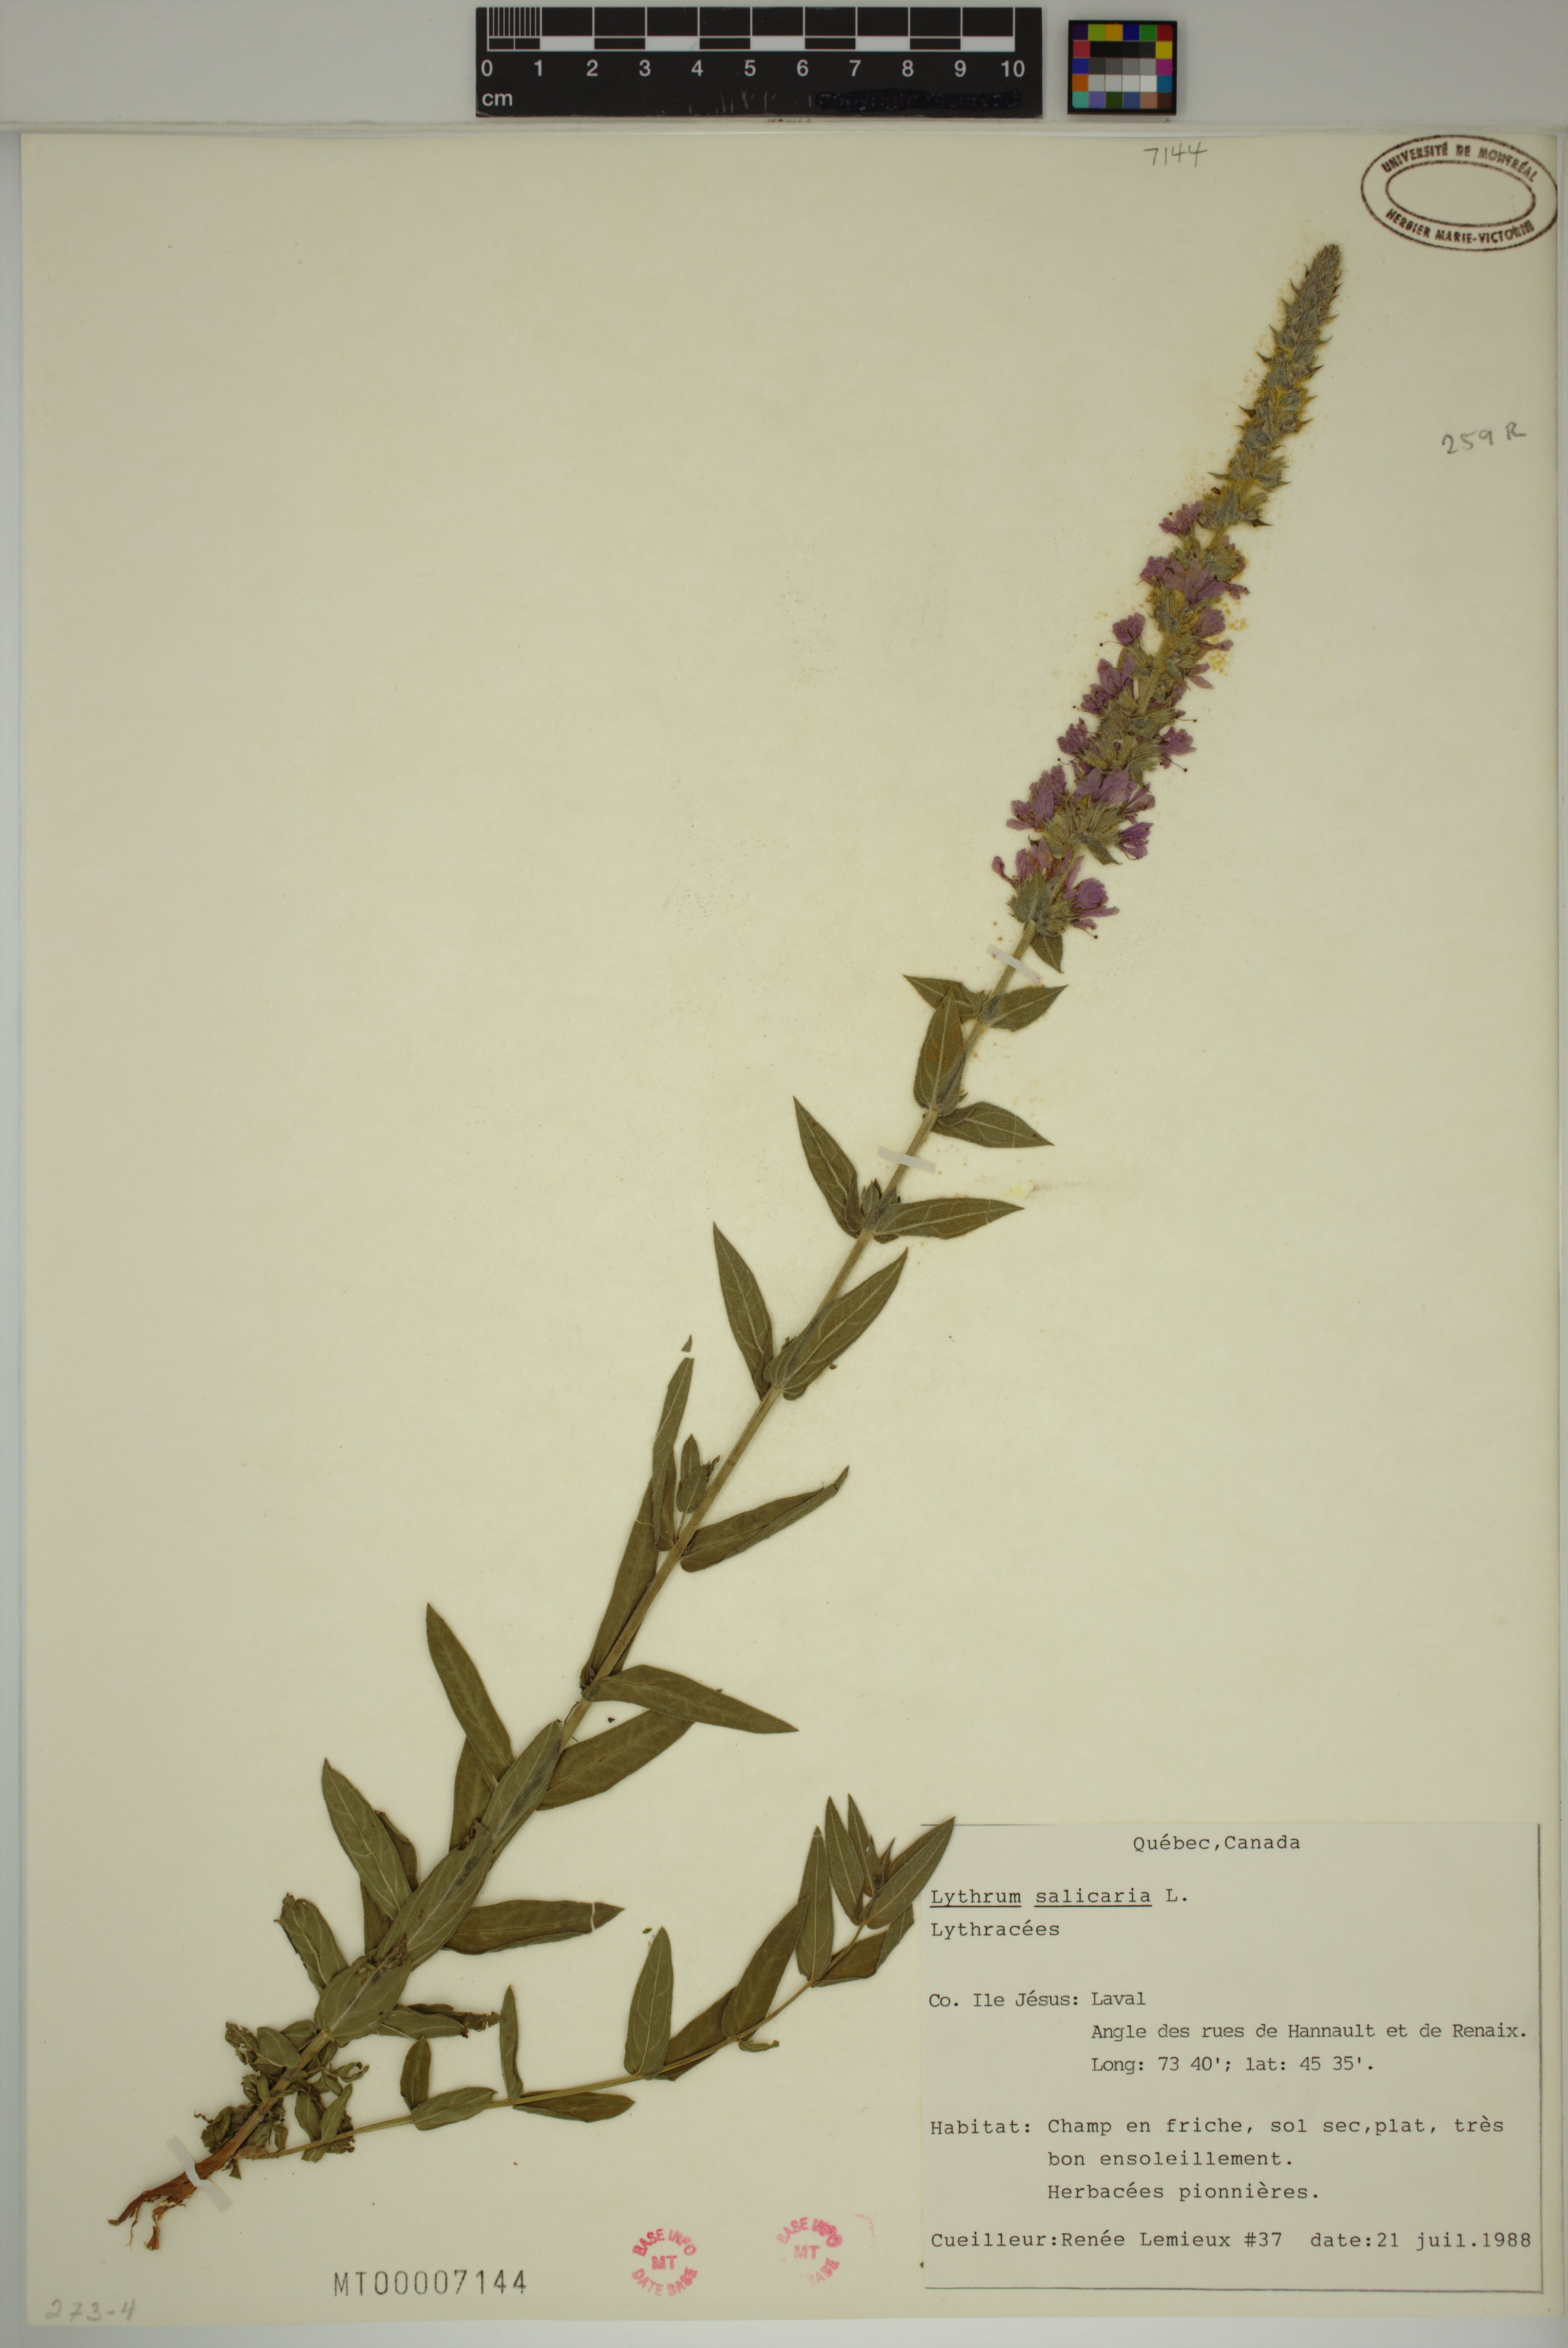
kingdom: Plantae
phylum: Tracheophyta
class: Magnoliopsida
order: Myrtales
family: Lythraceae
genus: Lythrum
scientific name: Lythrum salicaria
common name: Purple loosestrife
